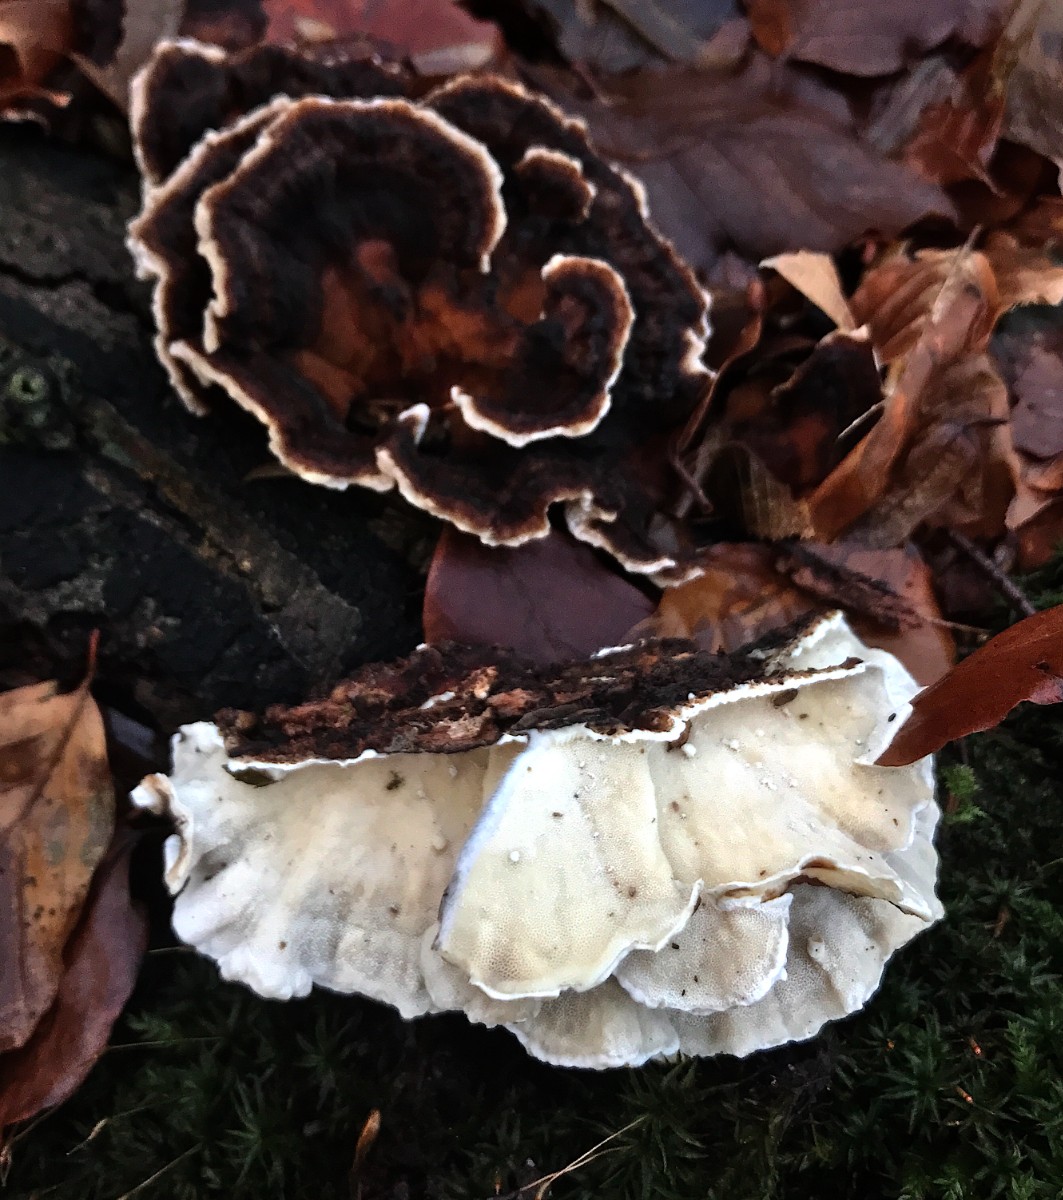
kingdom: Fungi
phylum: Basidiomycota
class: Agaricomycetes
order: Polyporales
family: Polyporaceae
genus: Trametes
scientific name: Trametes versicolor
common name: broget læderporesvamp
